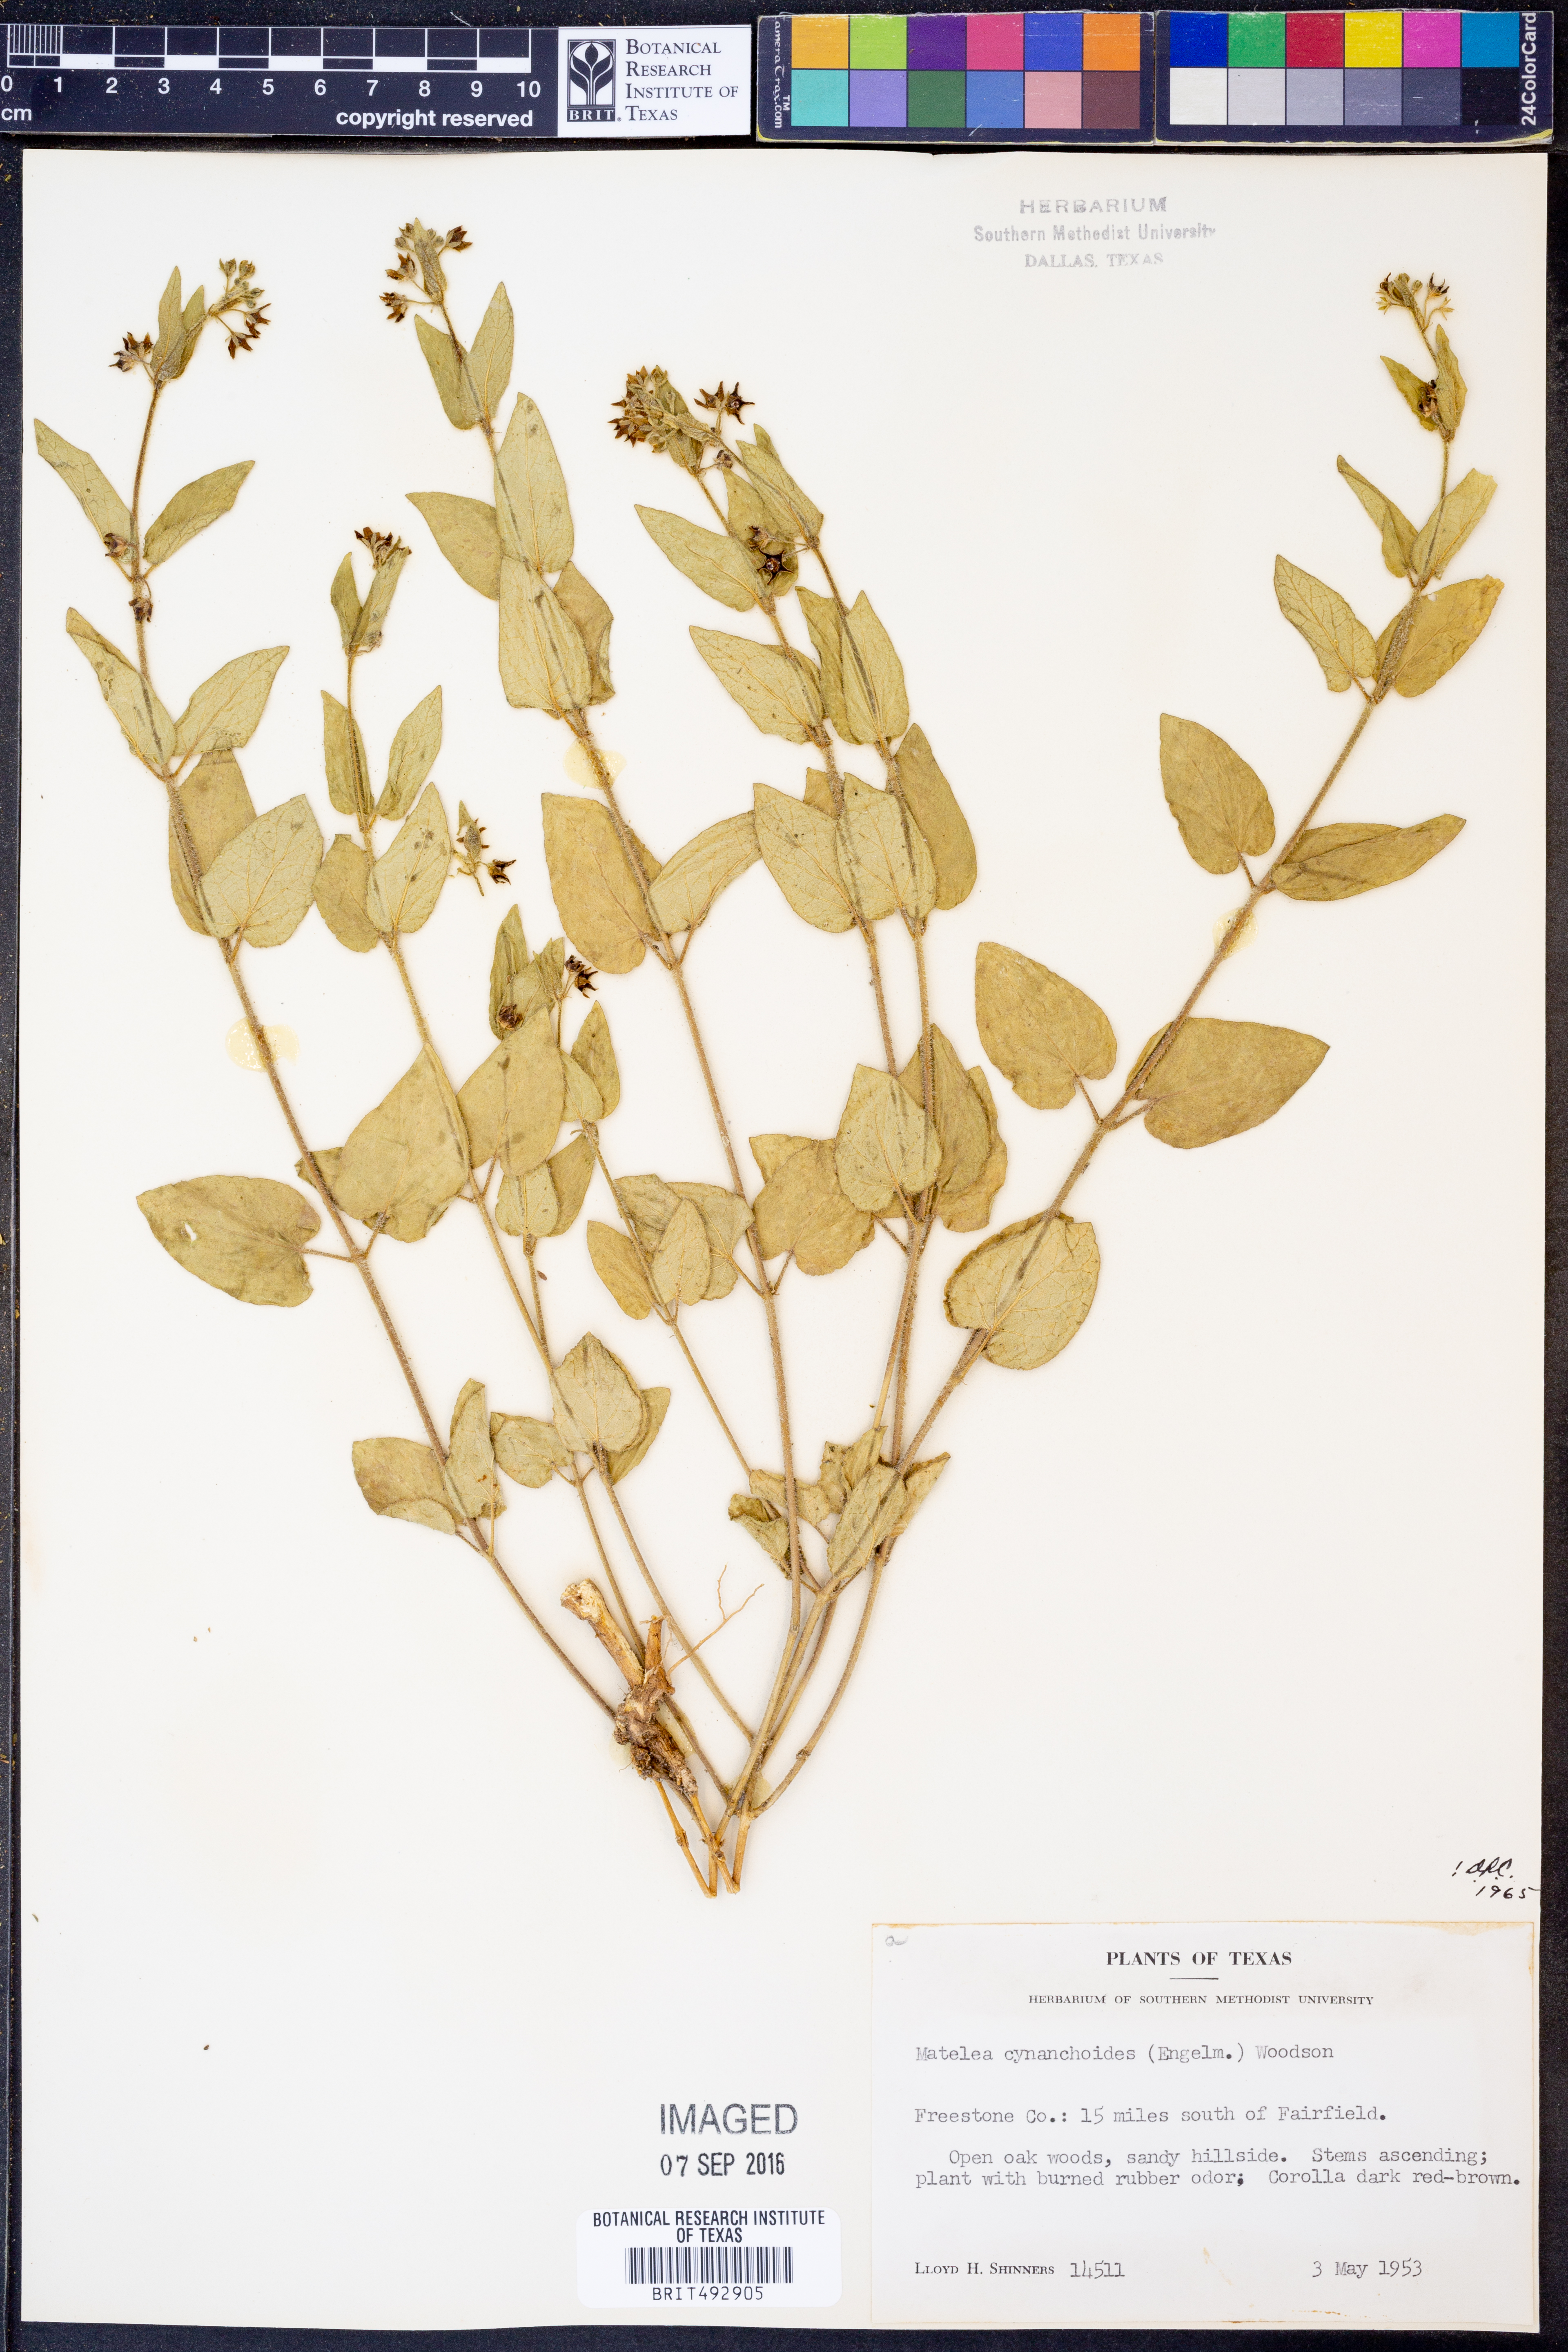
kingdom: Plantae
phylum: Tracheophyta
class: Magnoliopsida
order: Gentianales
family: Apocynaceae
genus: Matelea
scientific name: Matelea cynanchoides
